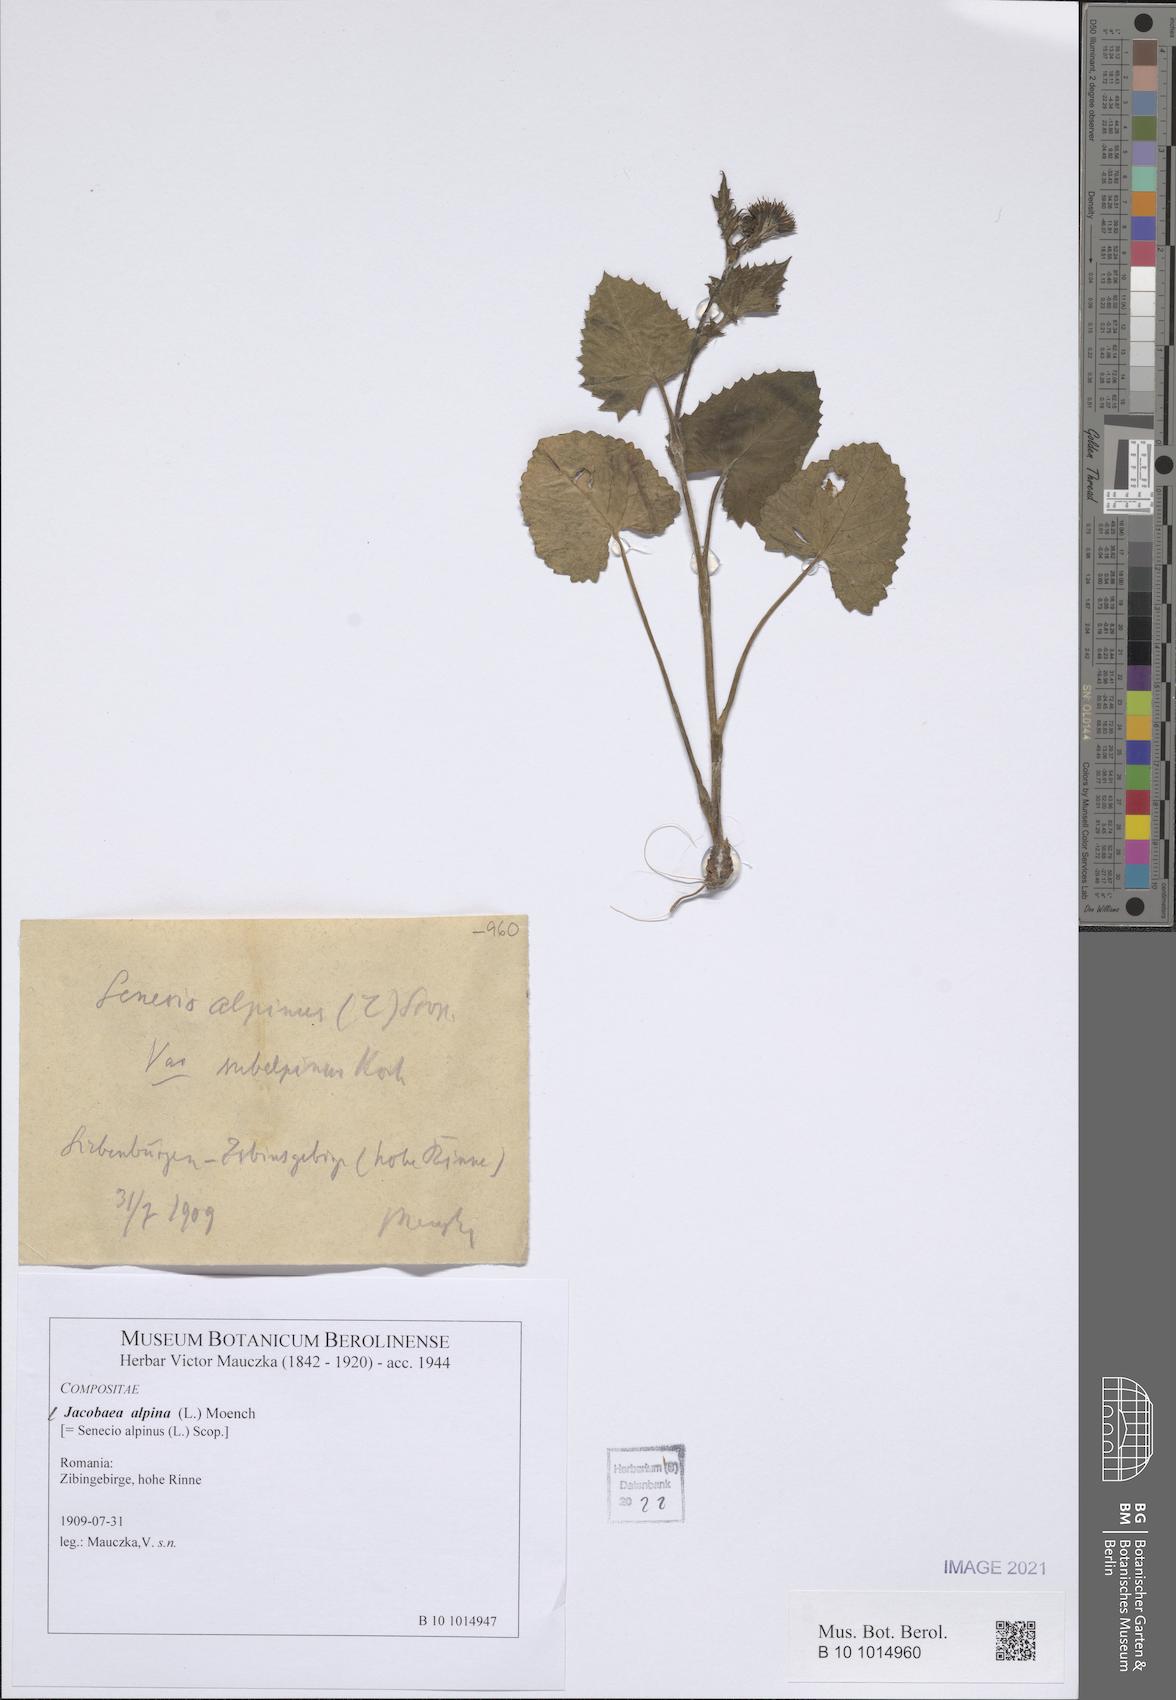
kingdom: Plantae
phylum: Tracheophyta
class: Magnoliopsida
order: Asterales
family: Asteraceae
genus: Jacobaea
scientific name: Jacobaea alpina
